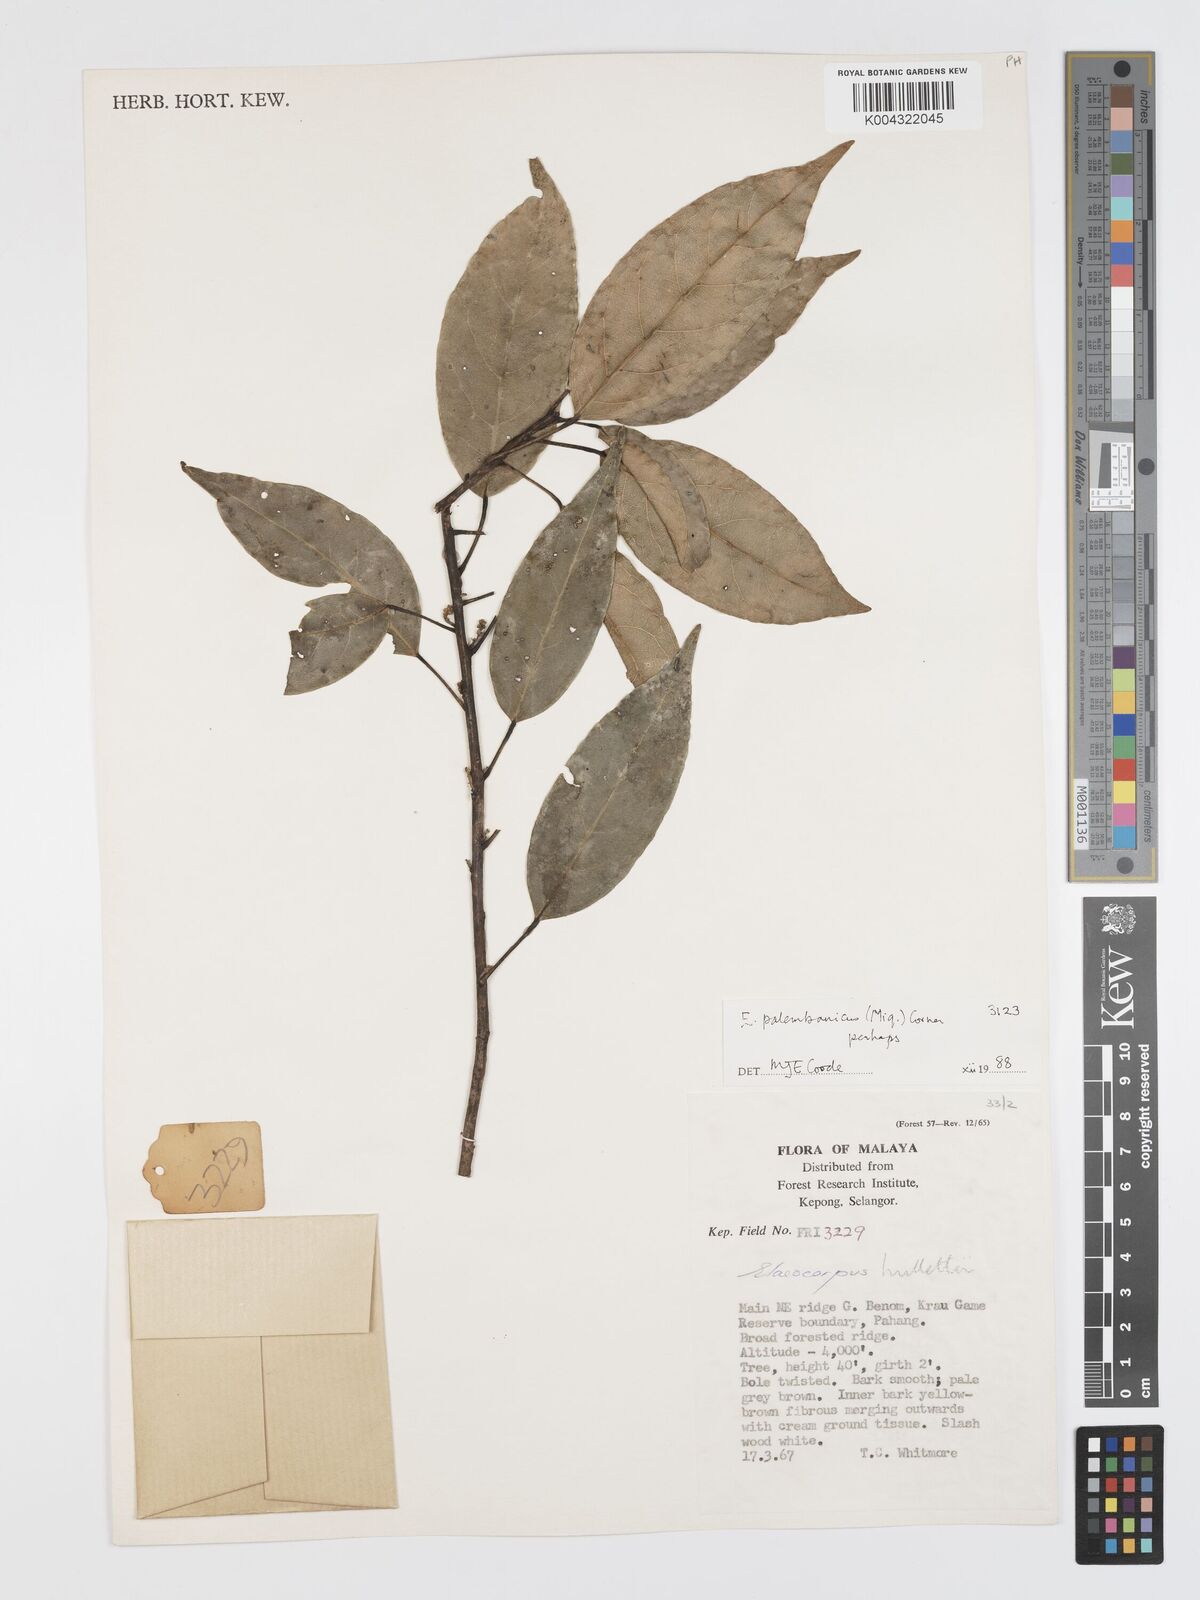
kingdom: Plantae
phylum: Tracheophyta
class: Magnoliopsida
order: Oxalidales
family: Elaeocarpaceae
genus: Elaeocarpus
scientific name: Elaeocarpus palembanicus
